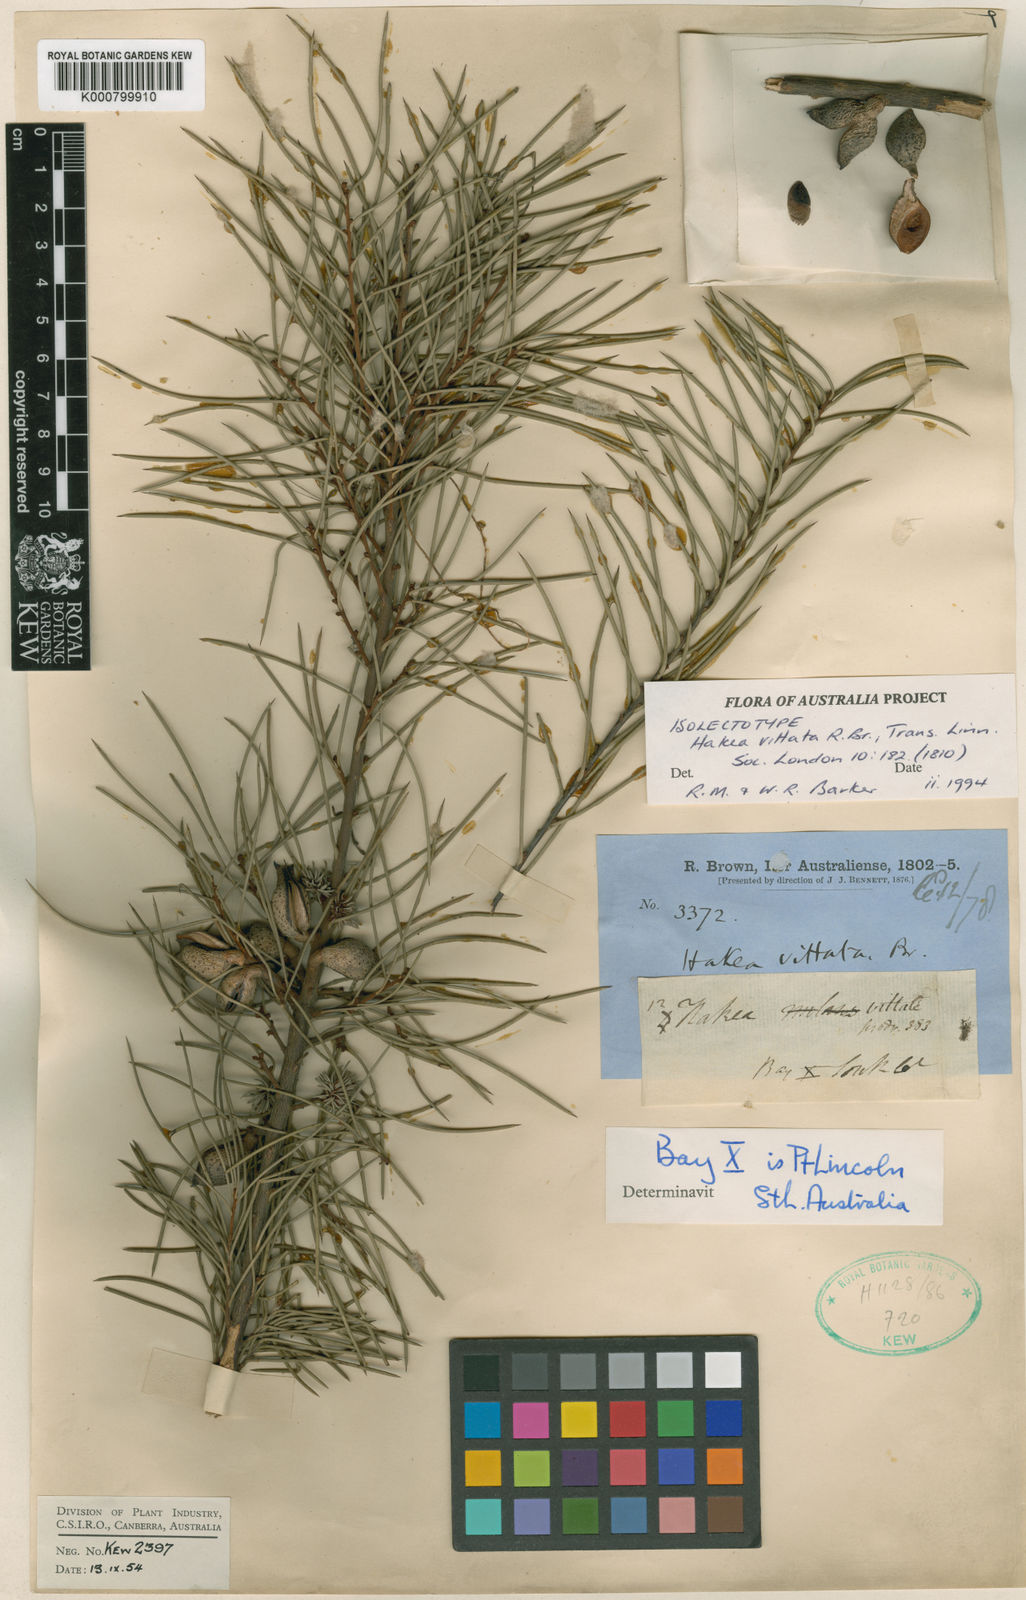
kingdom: Plantae
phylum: Tracheophyta
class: Magnoliopsida
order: Proteales
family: Proteaceae
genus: Hakea
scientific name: Hakea vittata
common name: Striped needlewood
